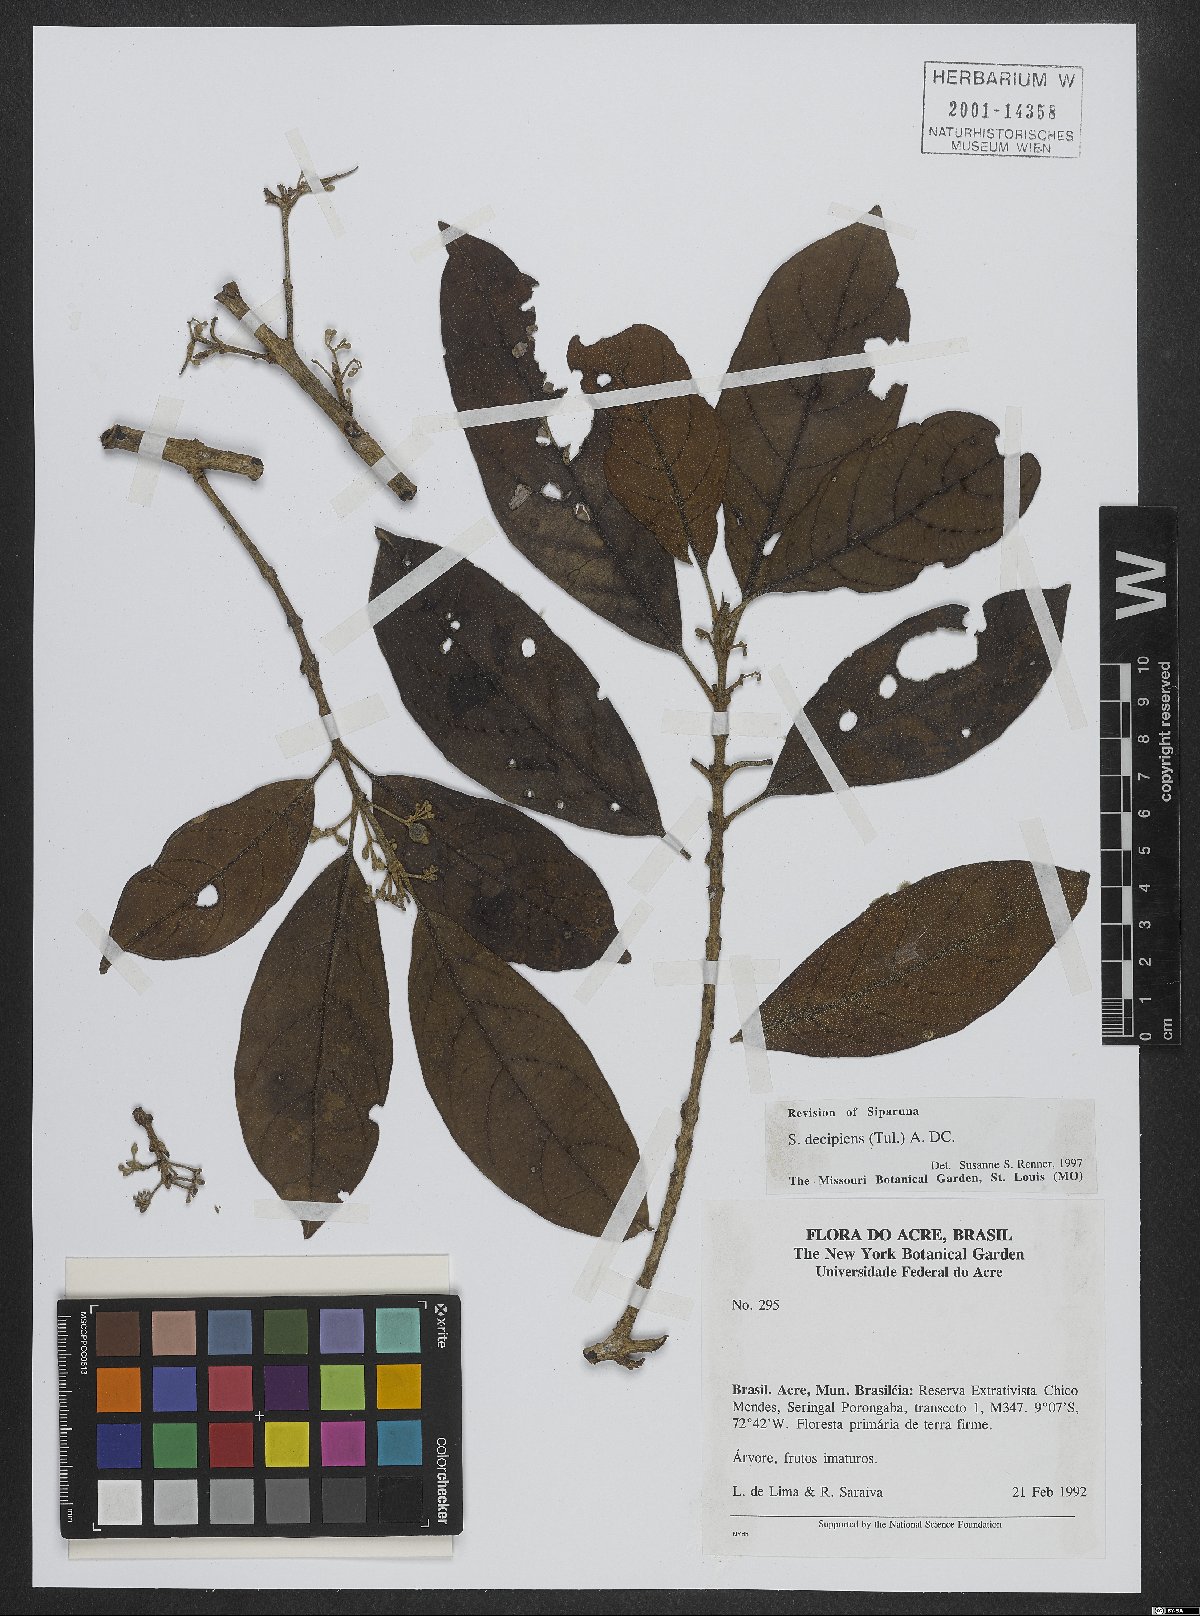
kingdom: Plantae
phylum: Tracheophyta
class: Magnoliopsida
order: Laurales
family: Siparunaceae
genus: Siparuna
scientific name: Siparuna decipiens
